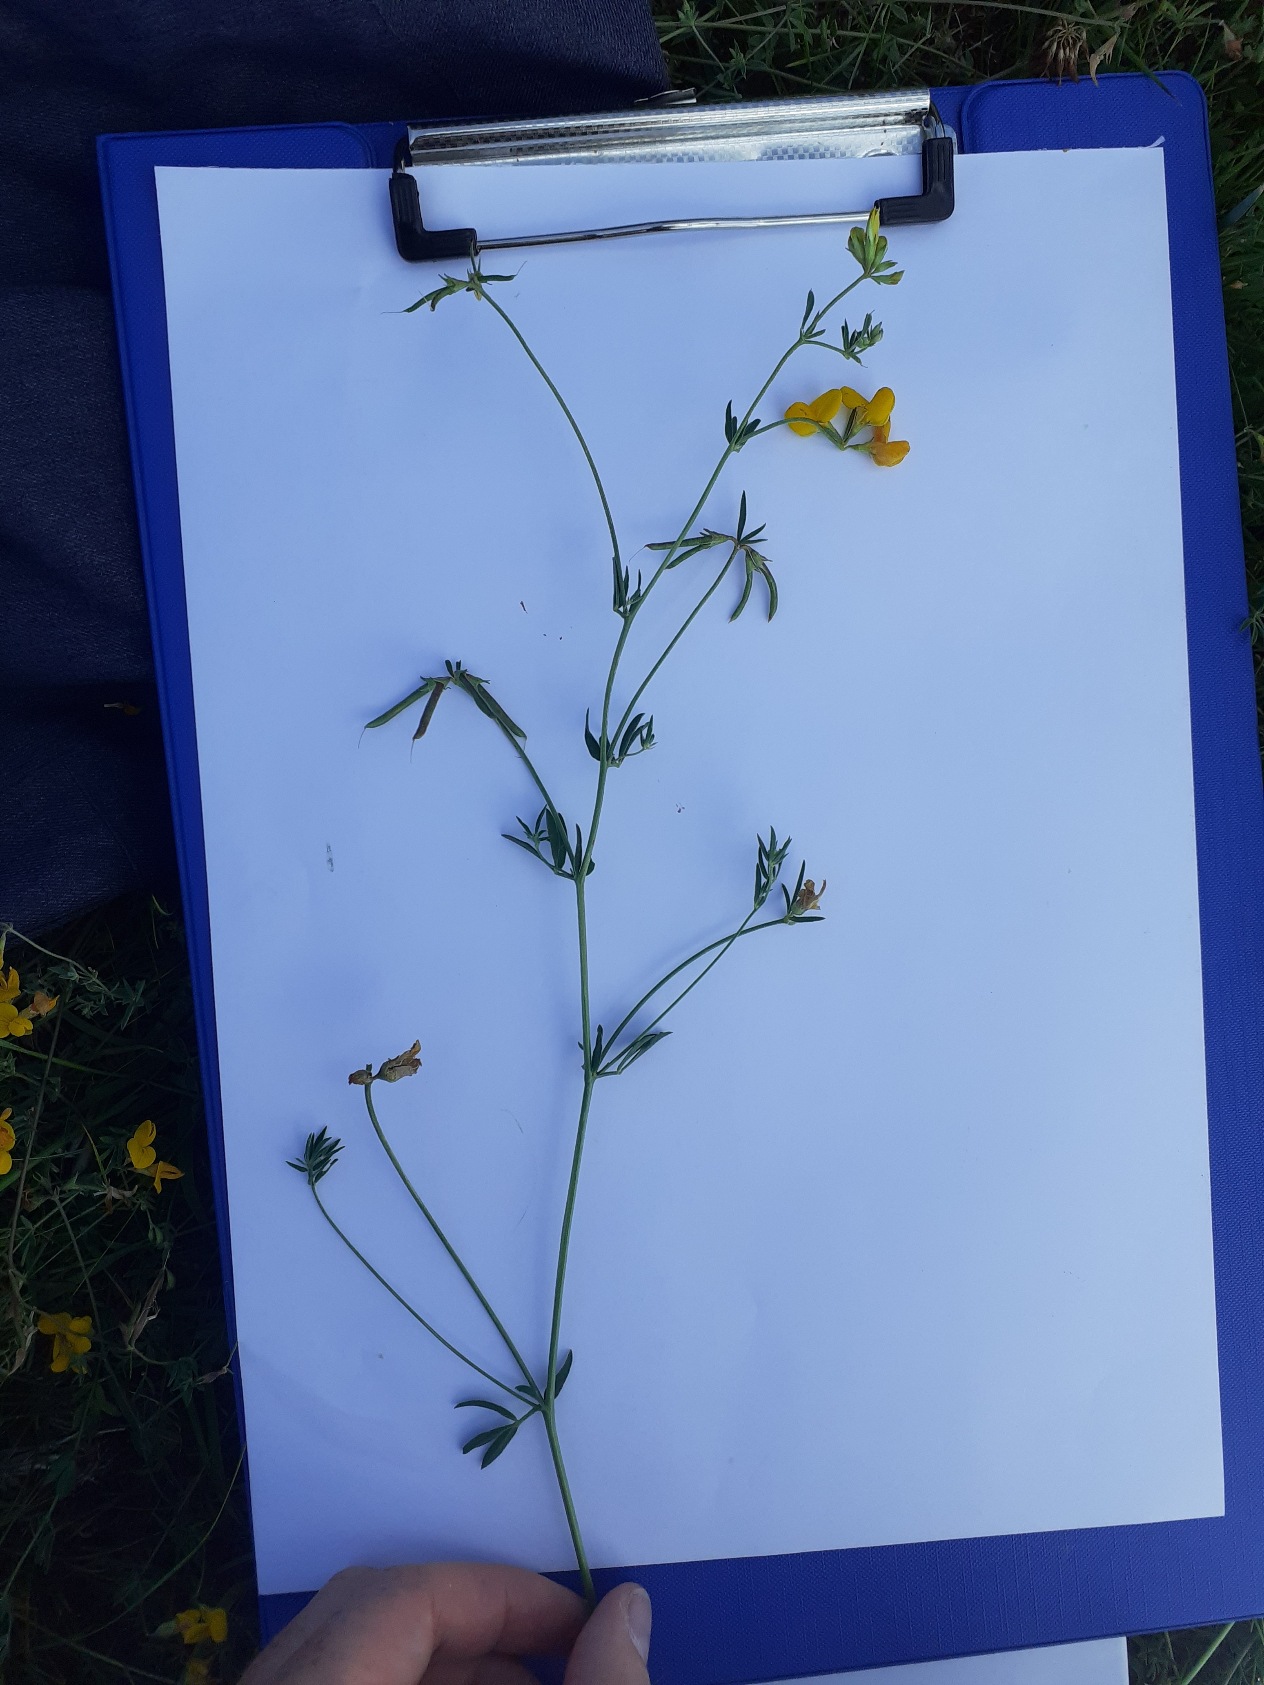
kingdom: Plantae
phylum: Tracheophyta
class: Magnoliopsida
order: Fabales
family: Fabaceae
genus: Lotus
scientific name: Lotus tenuis
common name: Smalbladet kællingetand
